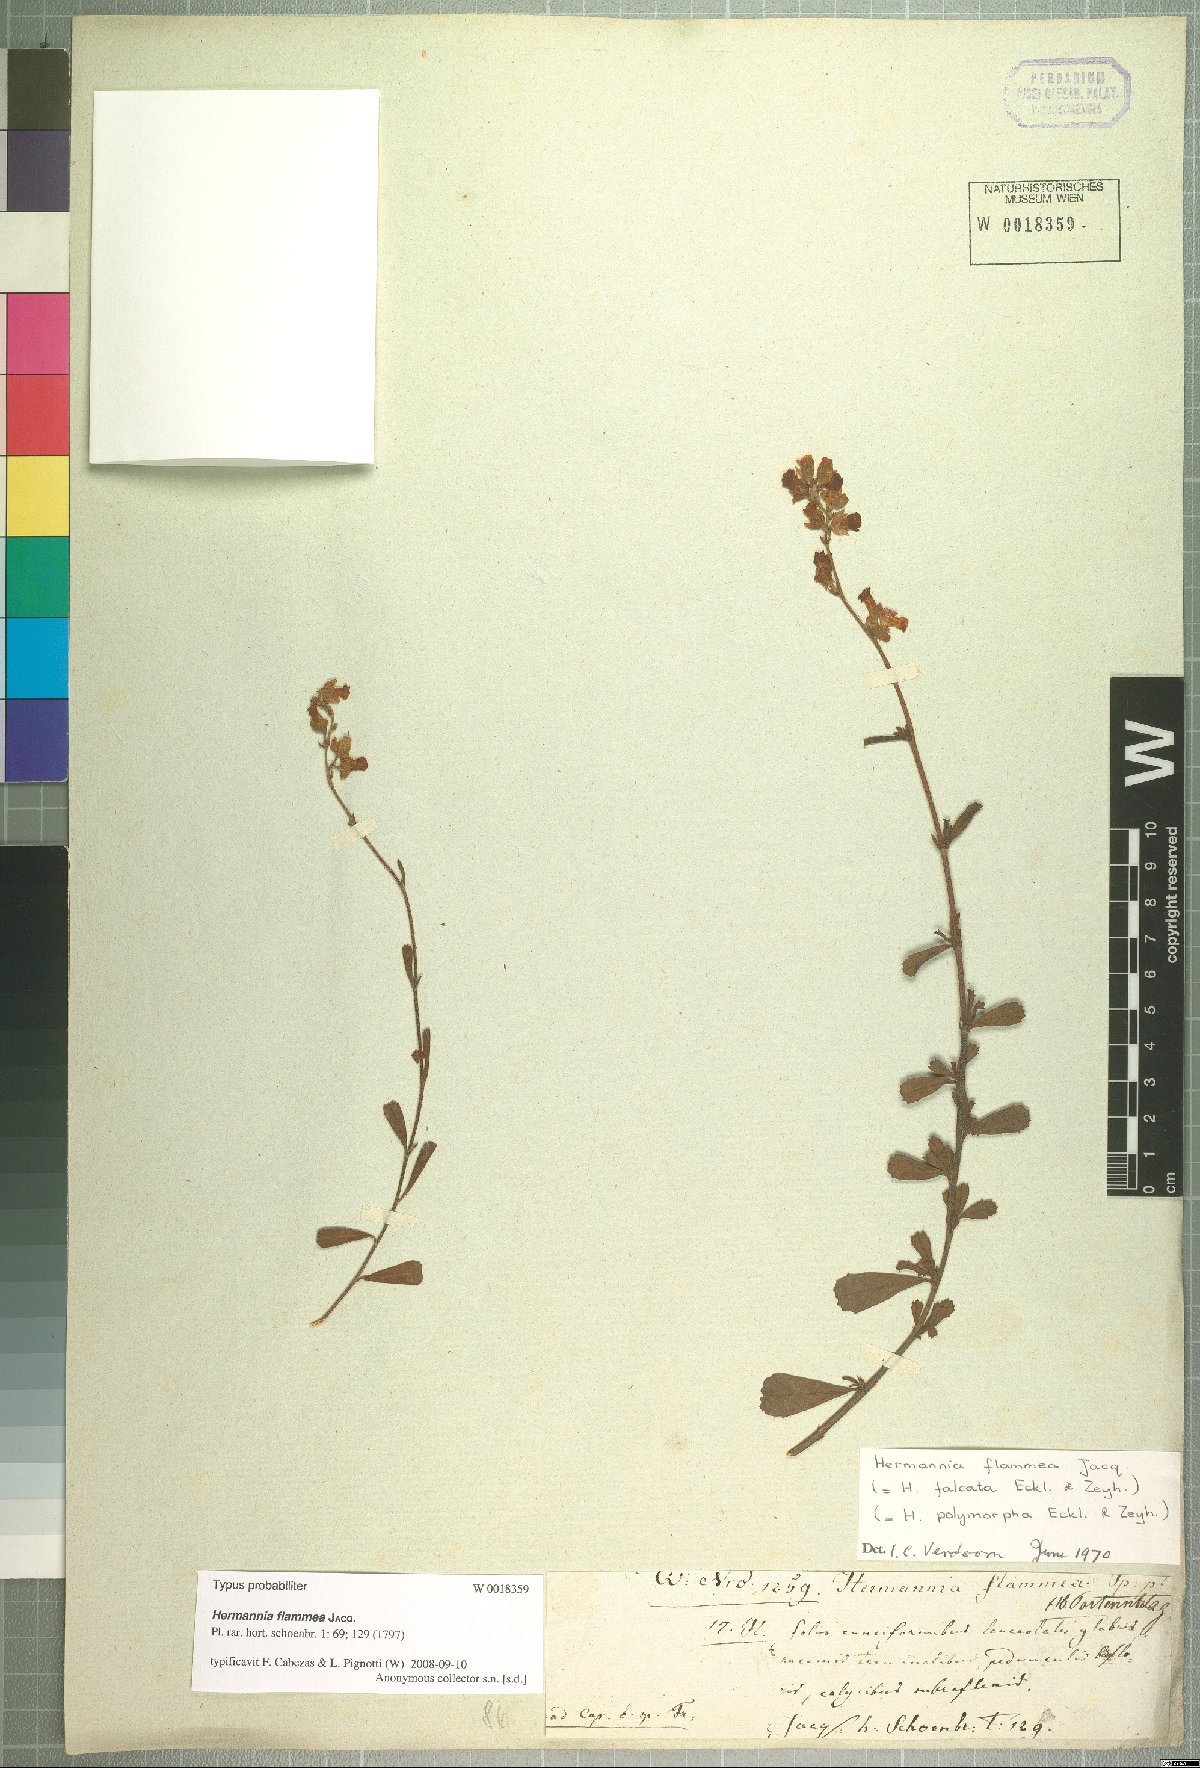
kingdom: Plantae
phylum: Tracheophyta
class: Magnoliopsida
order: Malvales
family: Malvaceae
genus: Hermannia
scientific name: Hermannia flammea
